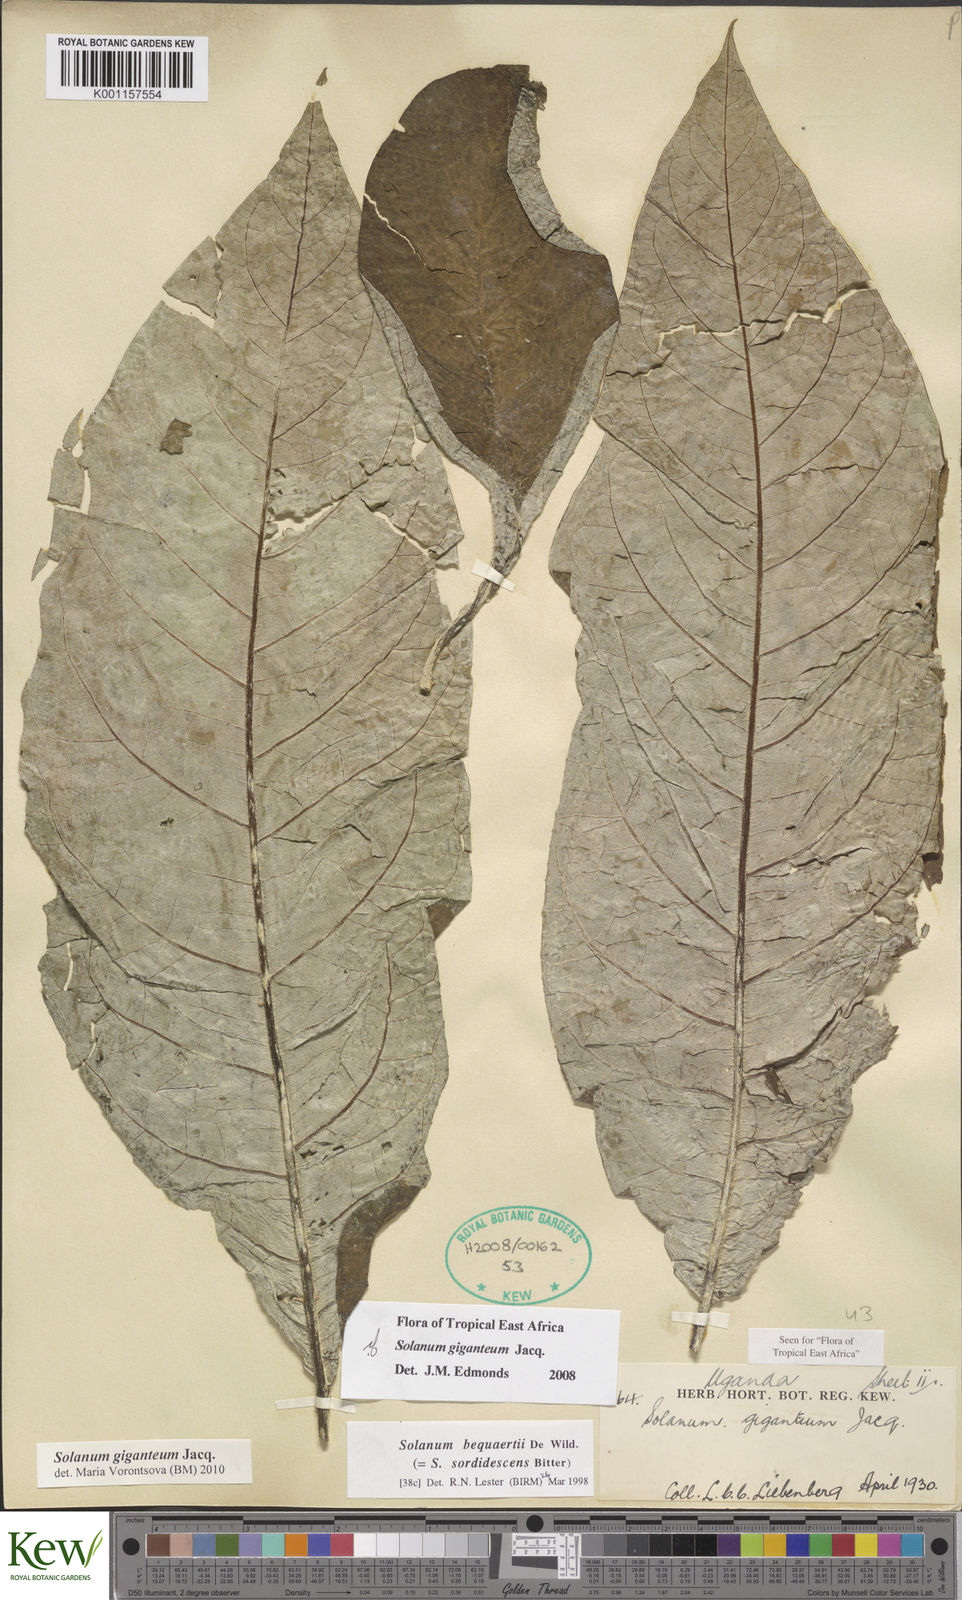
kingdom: Plantae
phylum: Tracheophyta
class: Magnoliopsida
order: Solanales
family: Solanaceae
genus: Solanum
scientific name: Solanum giganteum
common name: Healing-leaf-tree
